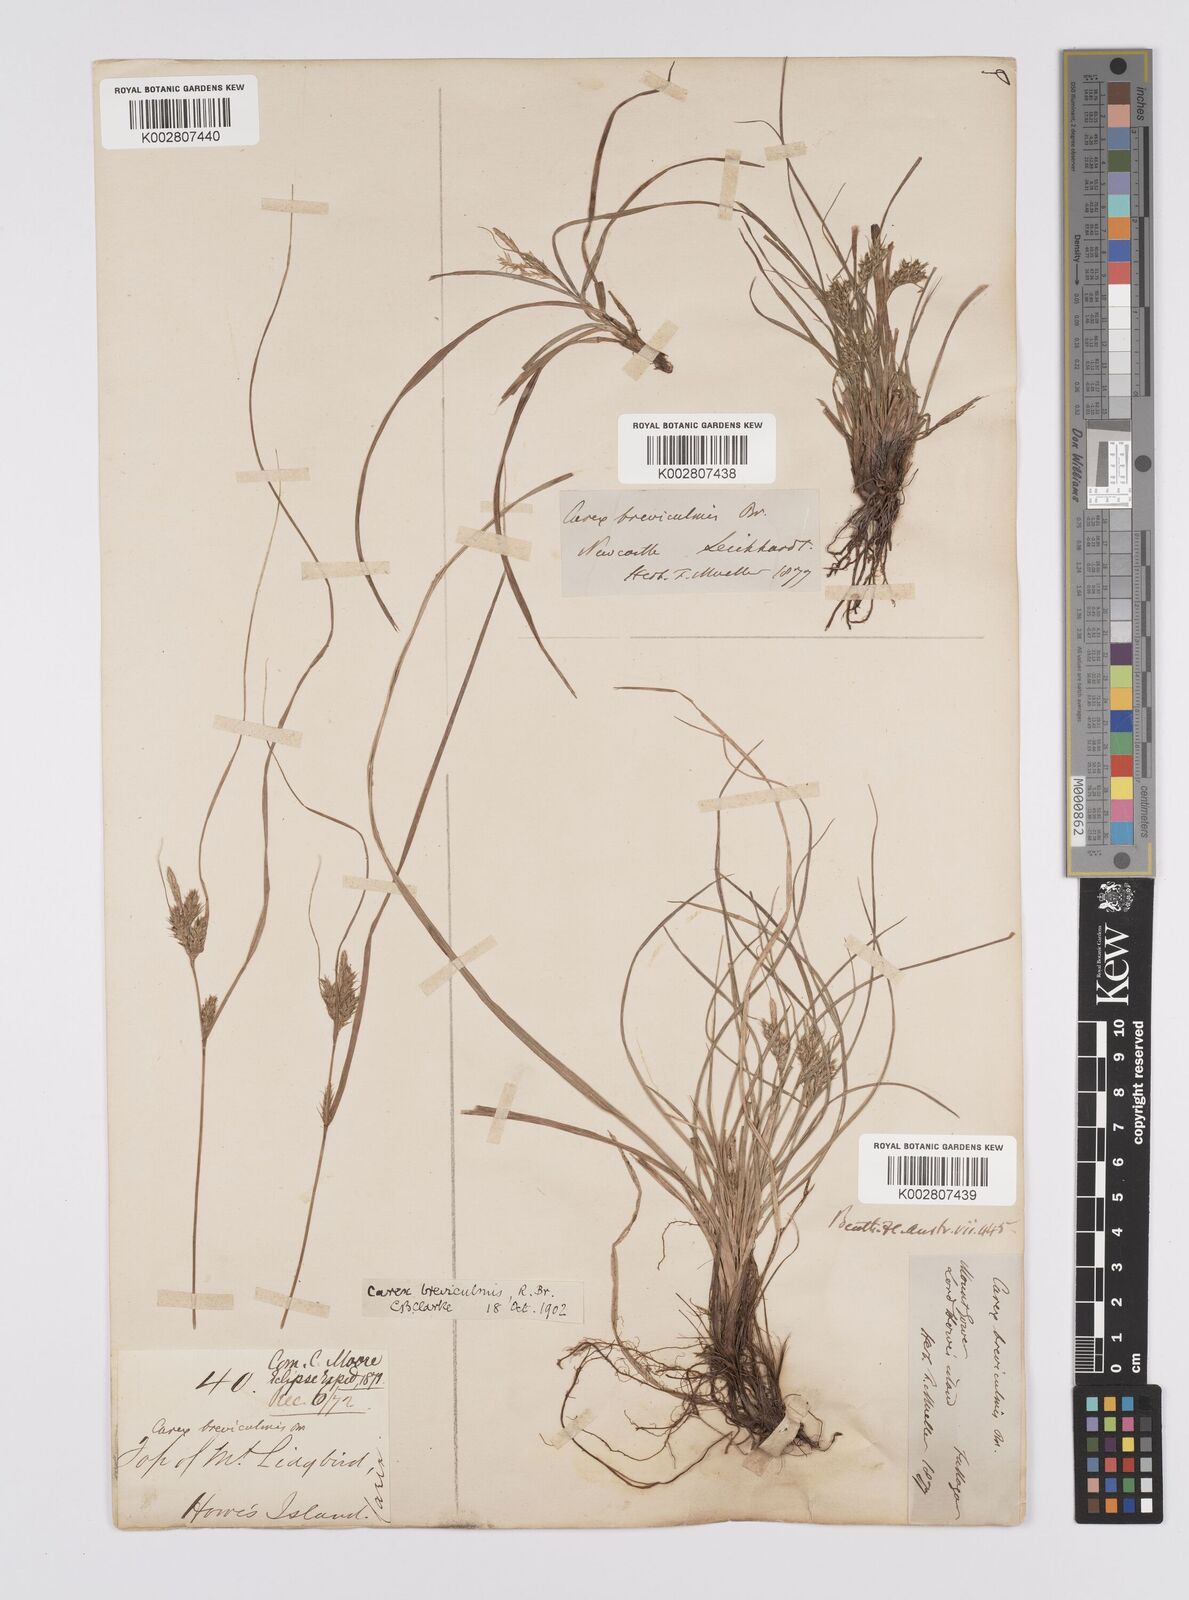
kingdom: Plantae
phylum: Tracheophyta
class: Liliopsida
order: Poales
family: Cyperaceae
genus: Carex
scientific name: Carex breviculmis
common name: Asian shortstem sedge
